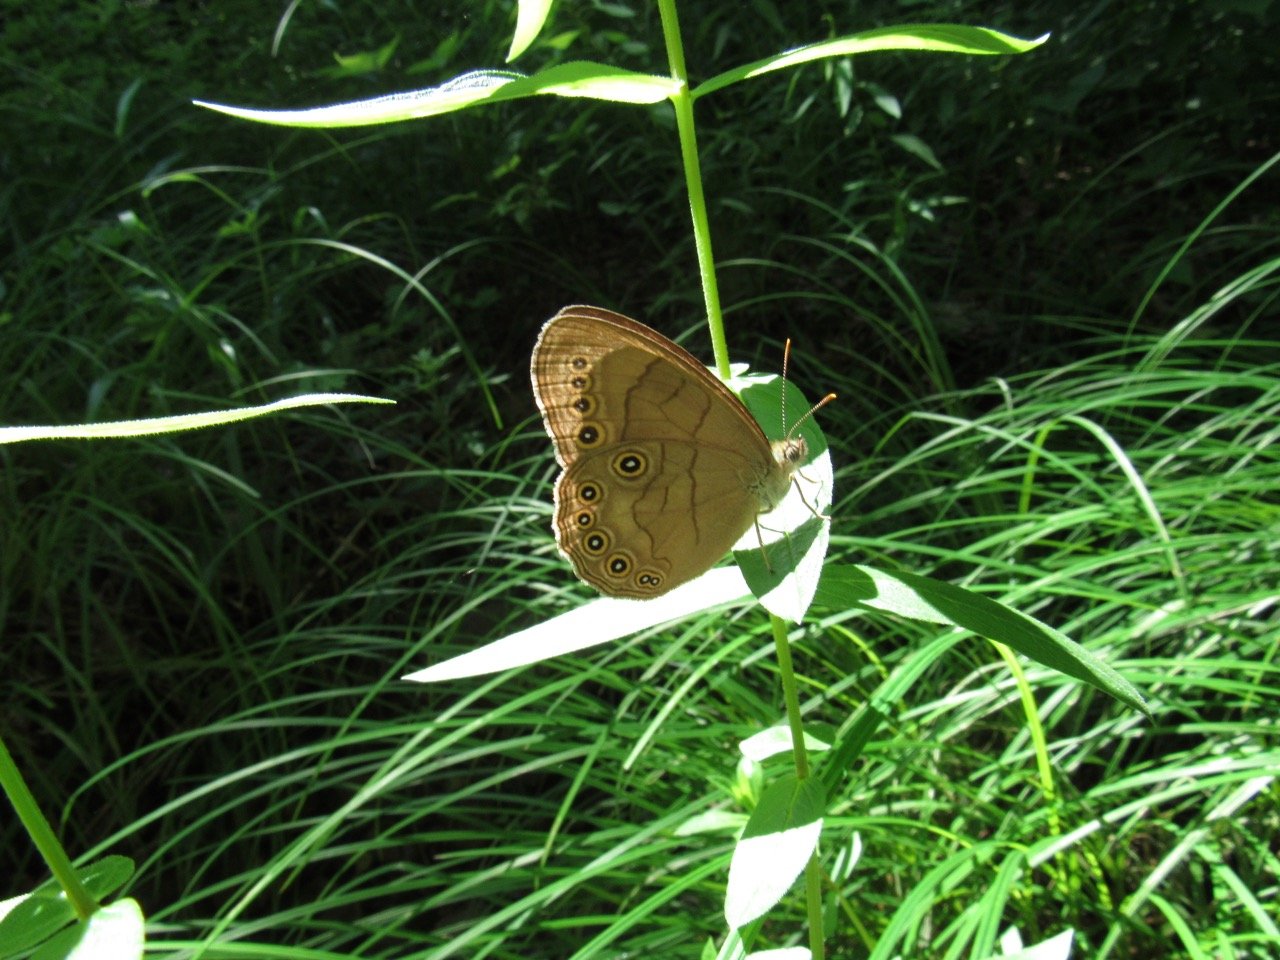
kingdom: Animalia
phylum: Arthropoda
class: Insecta
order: Lepidoptera
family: Nymphalidae
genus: Lethe
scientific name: Lethe eurydice
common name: Appalachian Eyed Brown
